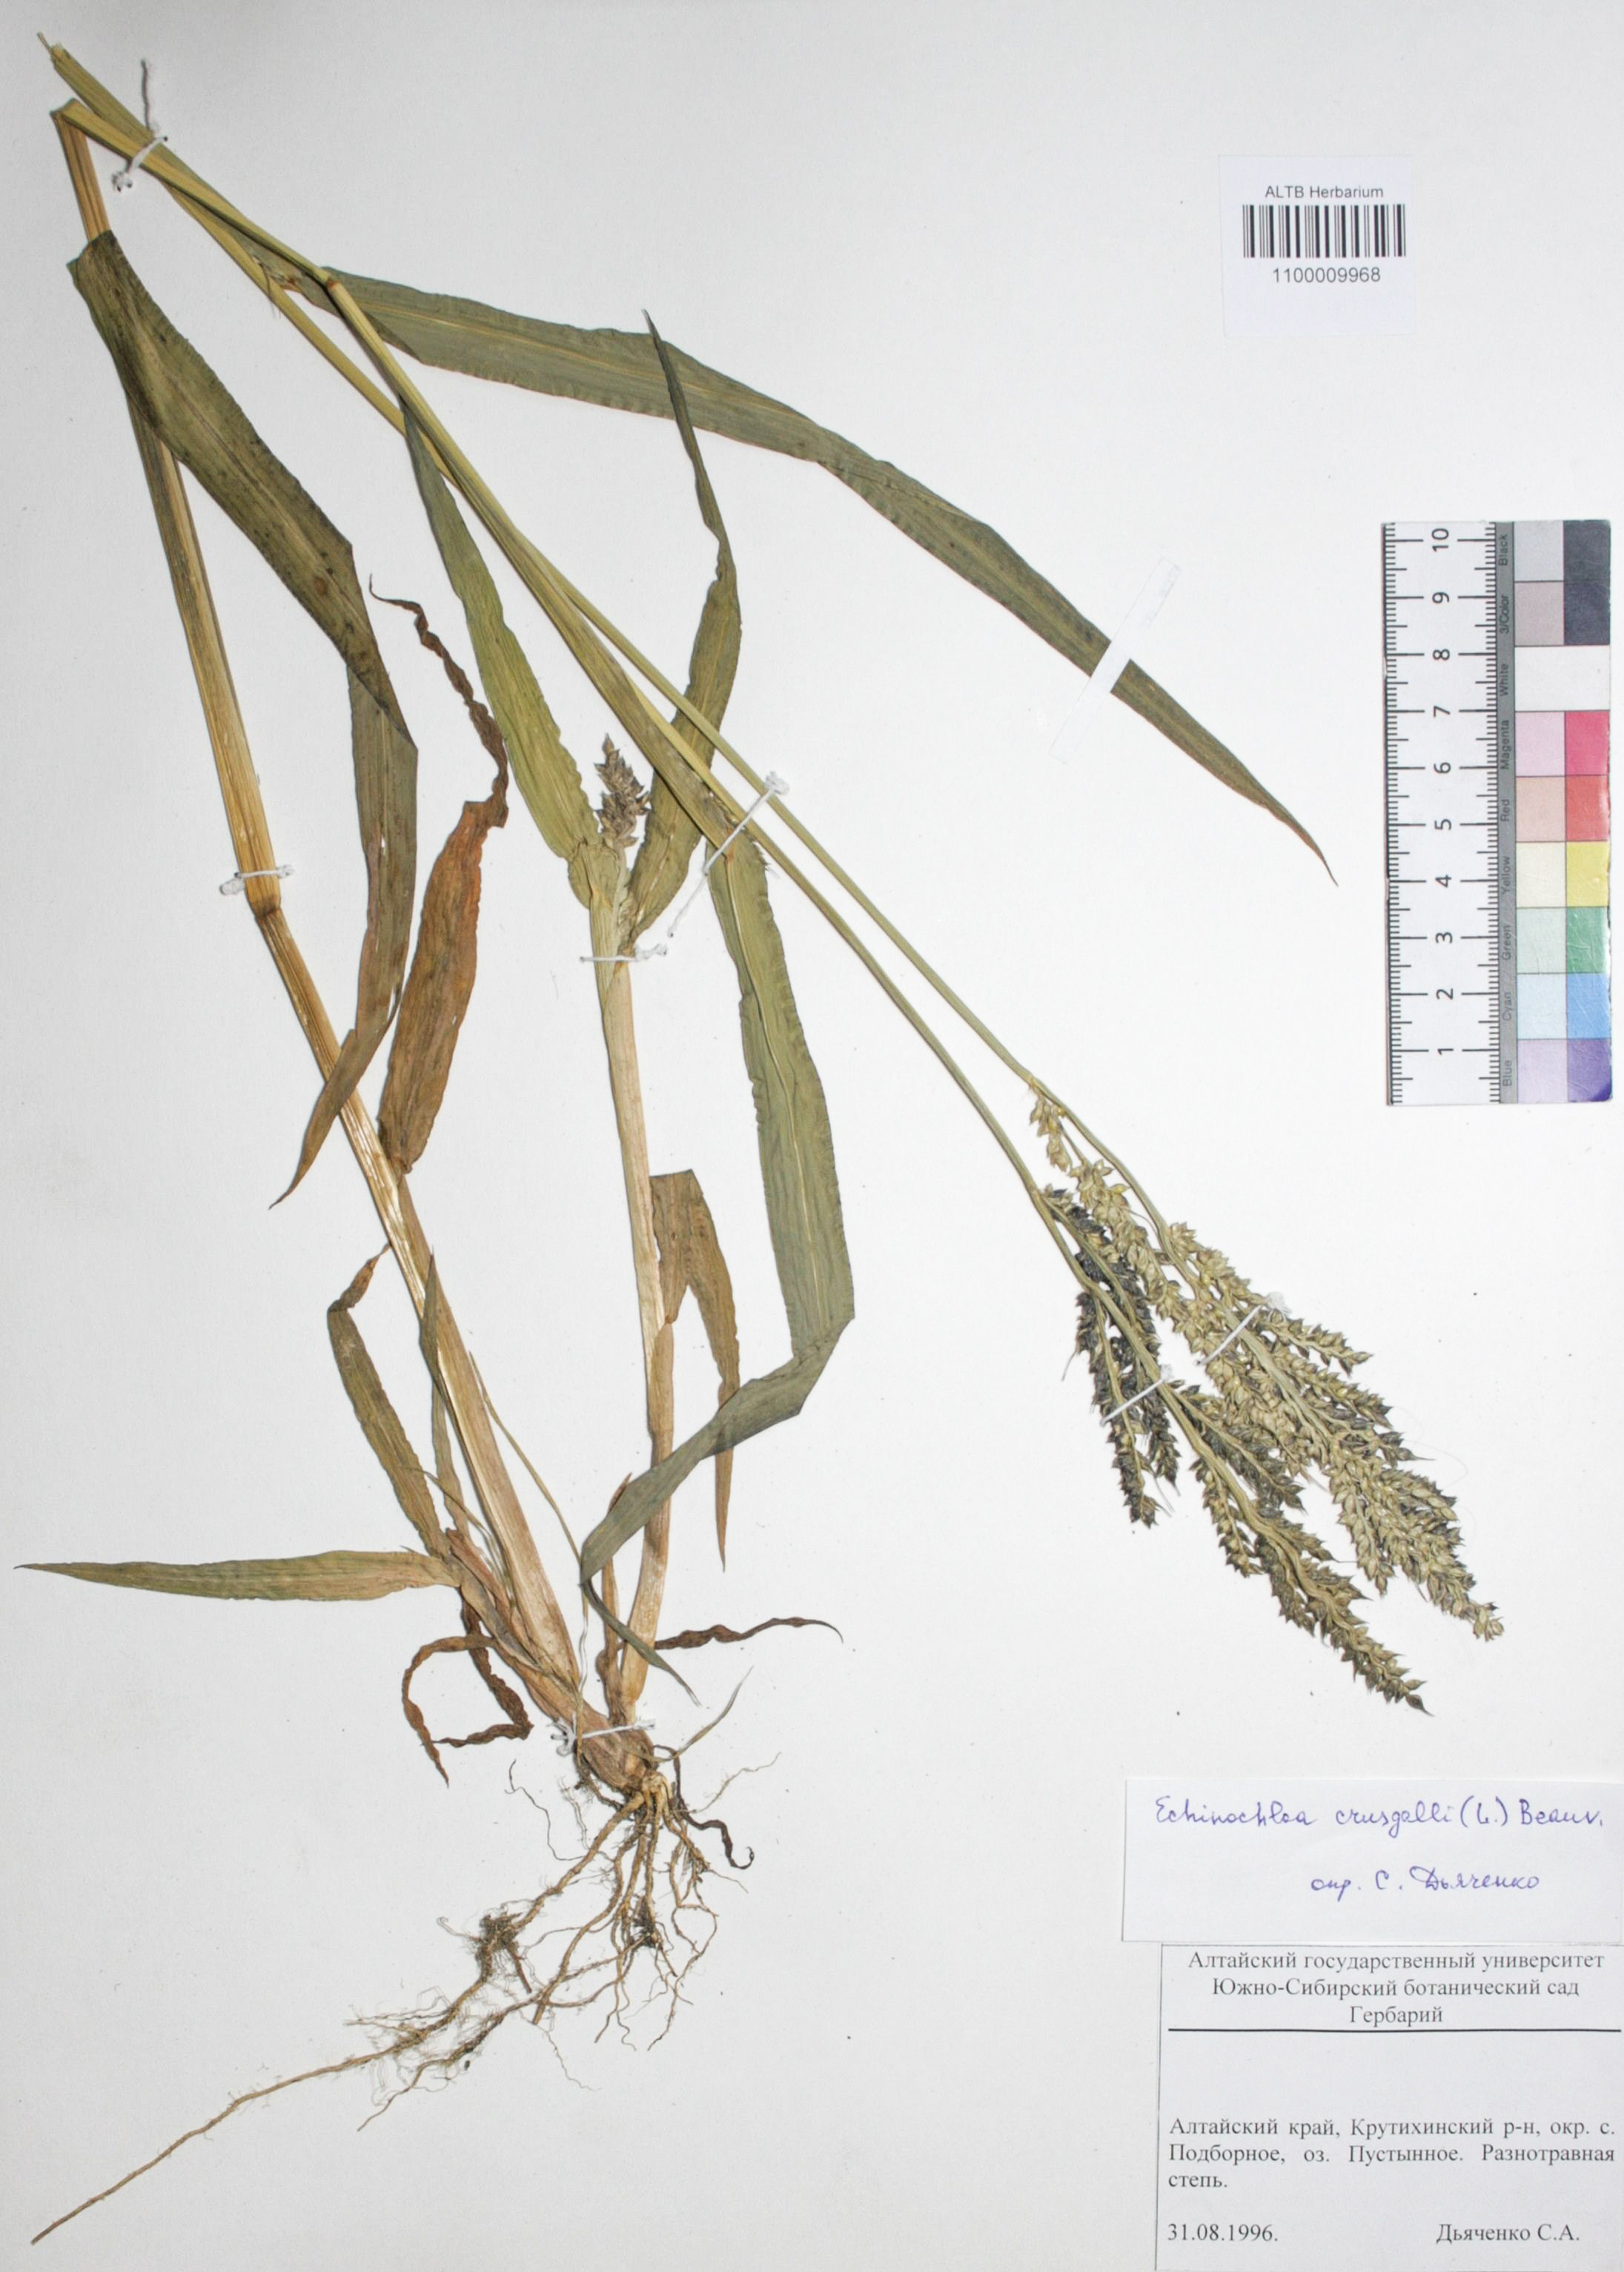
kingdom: Plantae
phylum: Tracheophyta
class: Liliopsida
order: Poales
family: Poaceae
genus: Echinochloa
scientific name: Echinochloa crus-galli
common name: Cockspur
